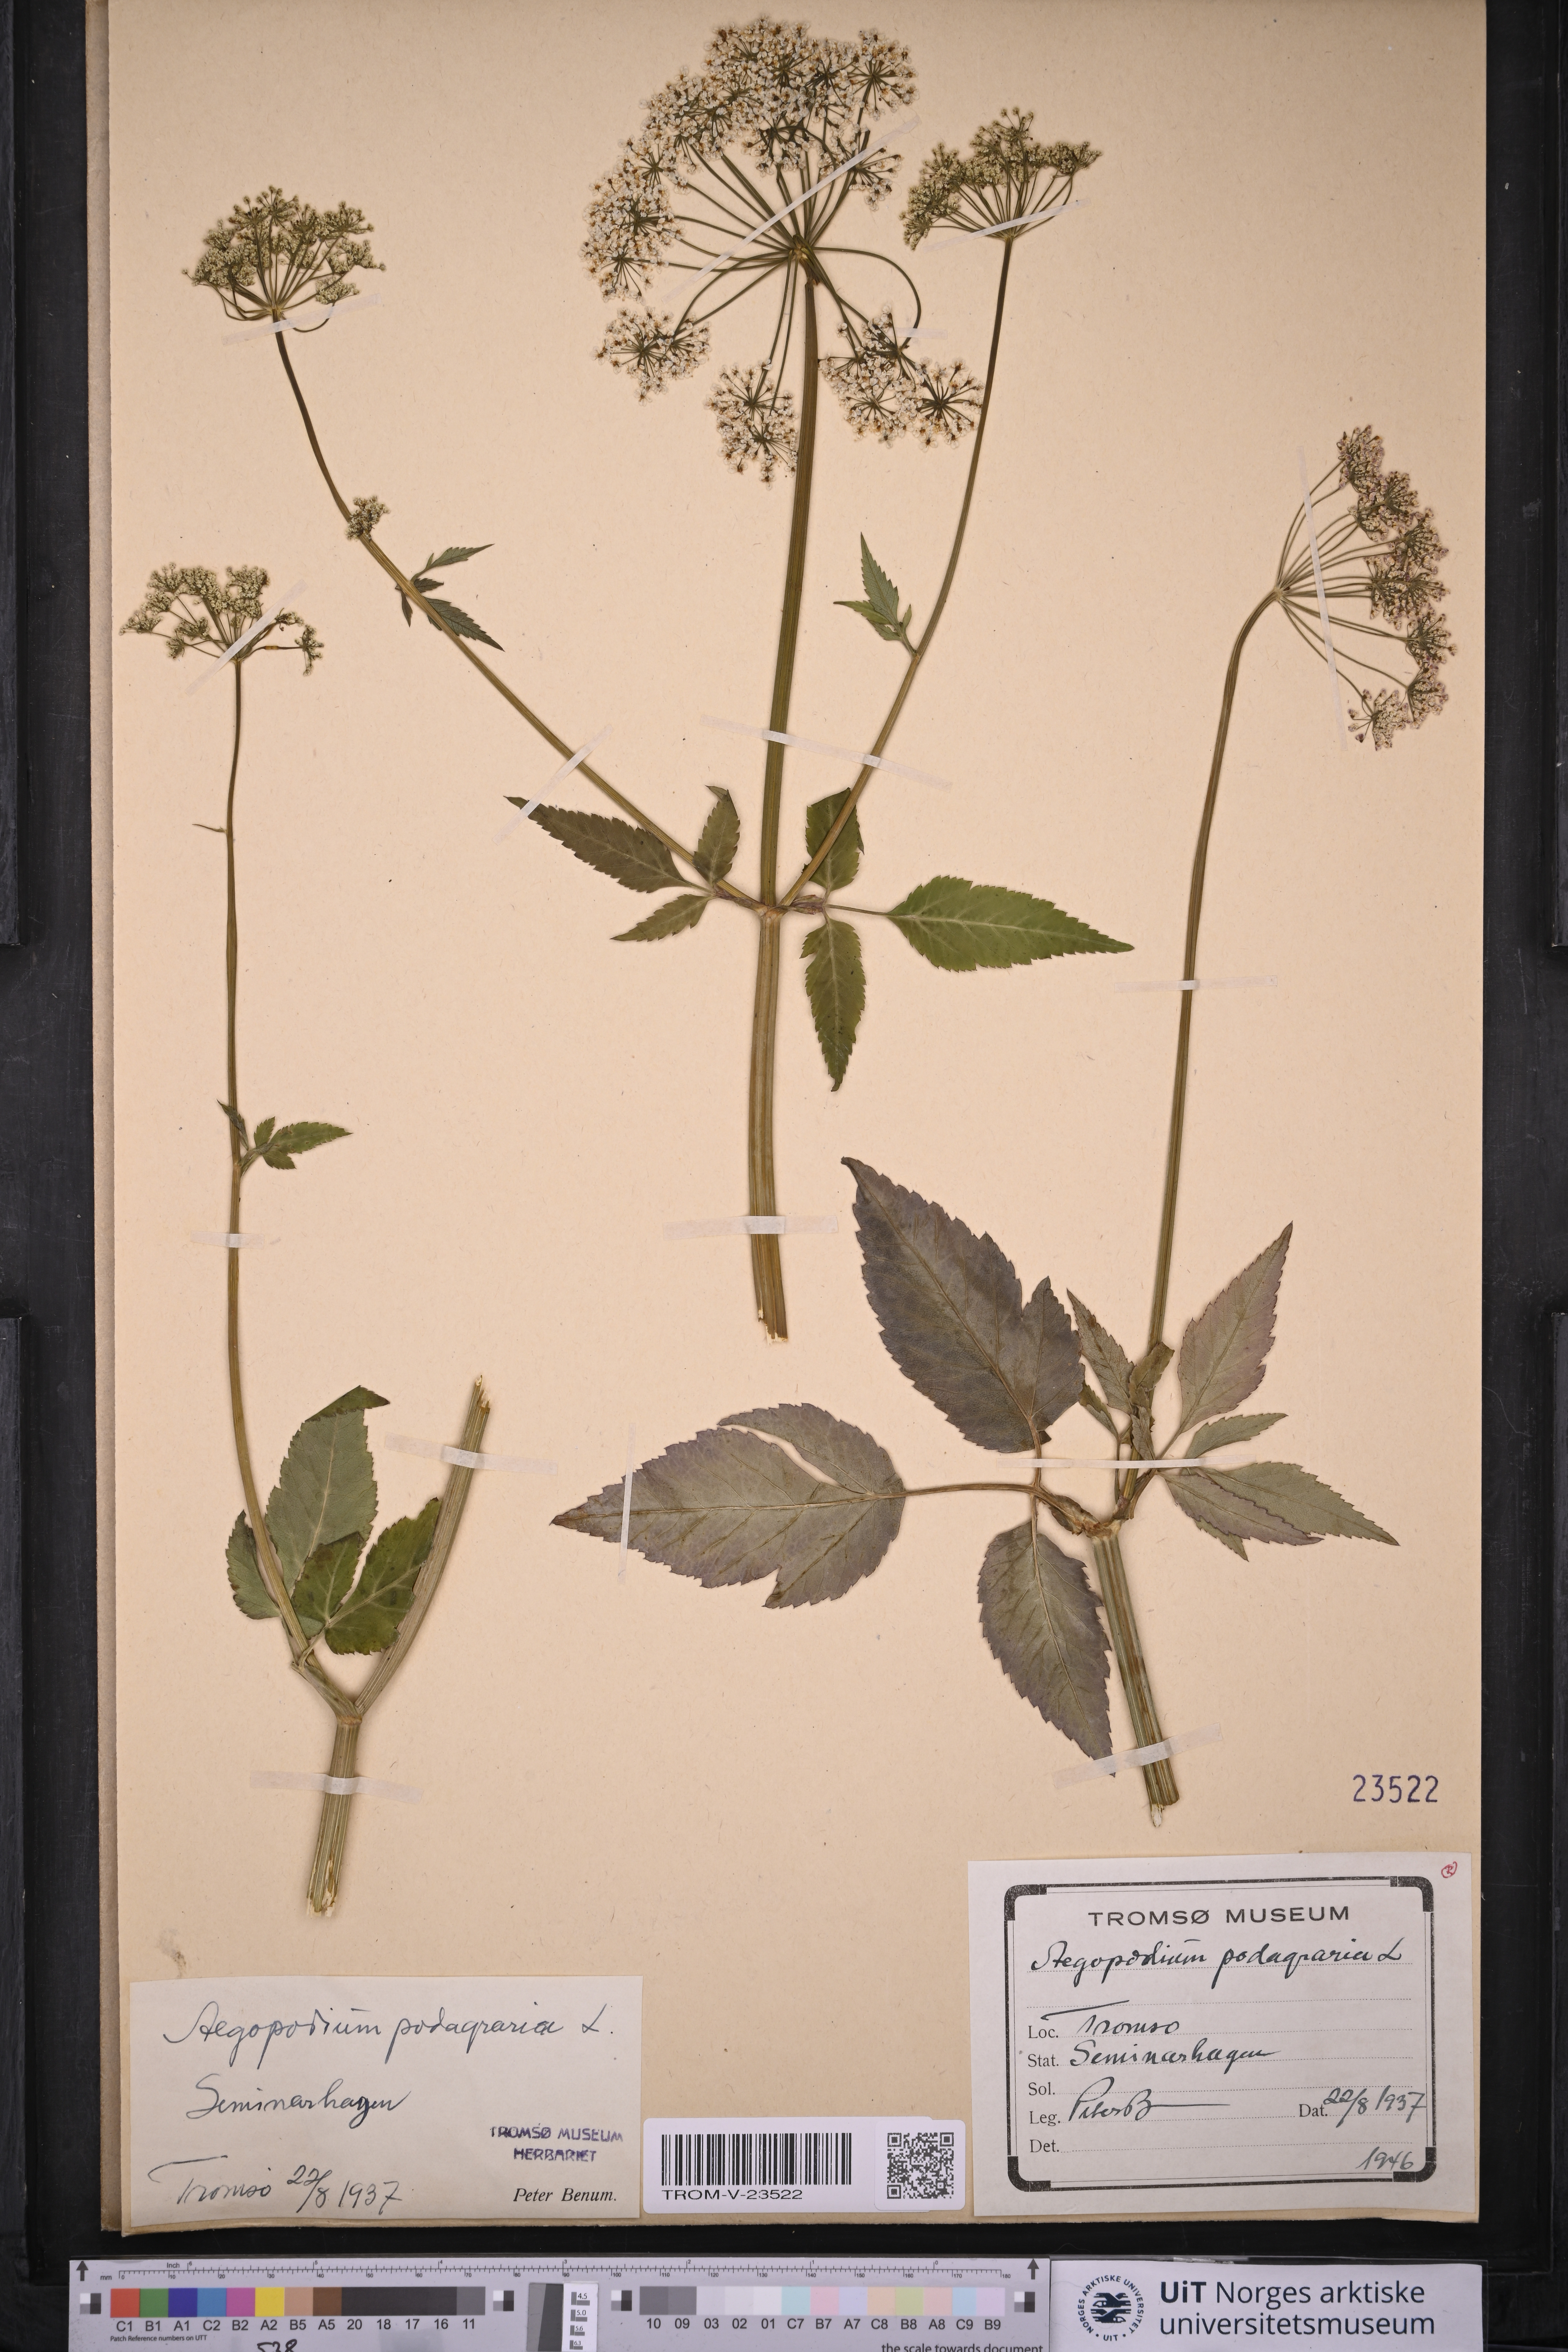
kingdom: Plantae
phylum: Tracheophyta
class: Magnoliopsida
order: Apiales
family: Apiaceae
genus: Aegopodium
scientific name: Aegopodium podagraria
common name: Ground-elder
